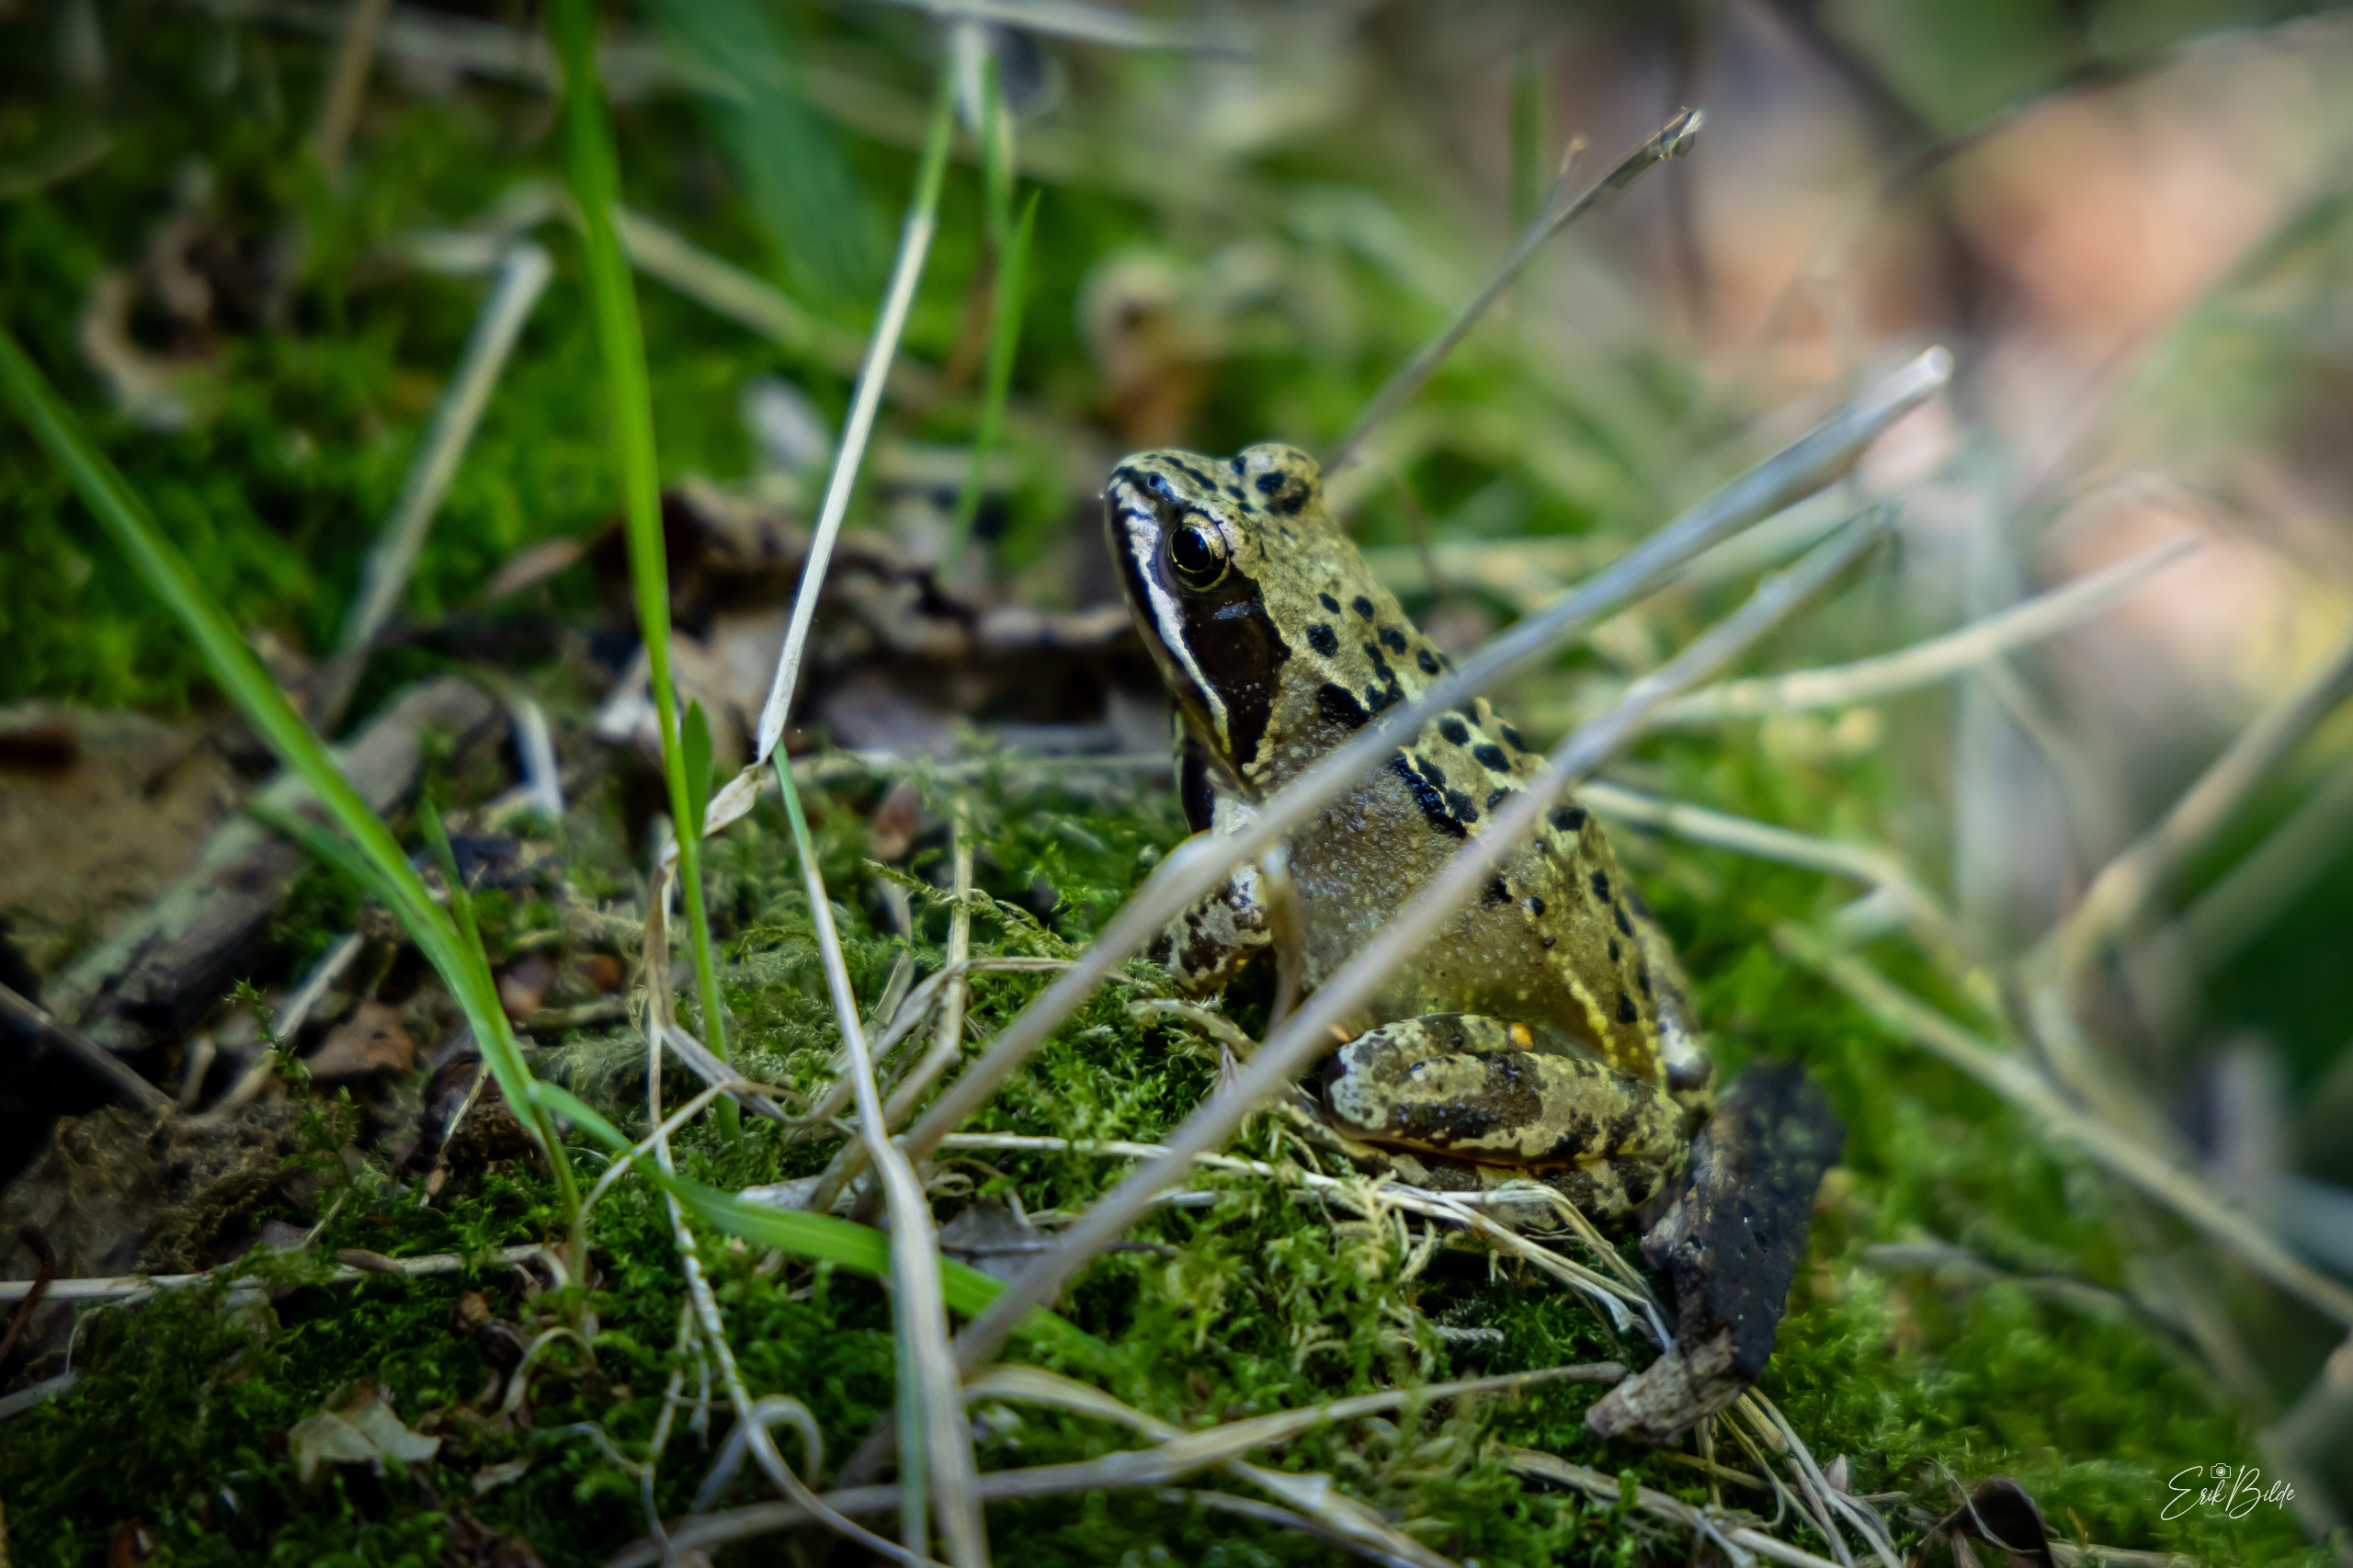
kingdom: Animalia
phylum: Chordata
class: Amphibia
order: Anura
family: Ranidae
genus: Rana
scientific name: Rana temporaria
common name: Butsnudet frø
